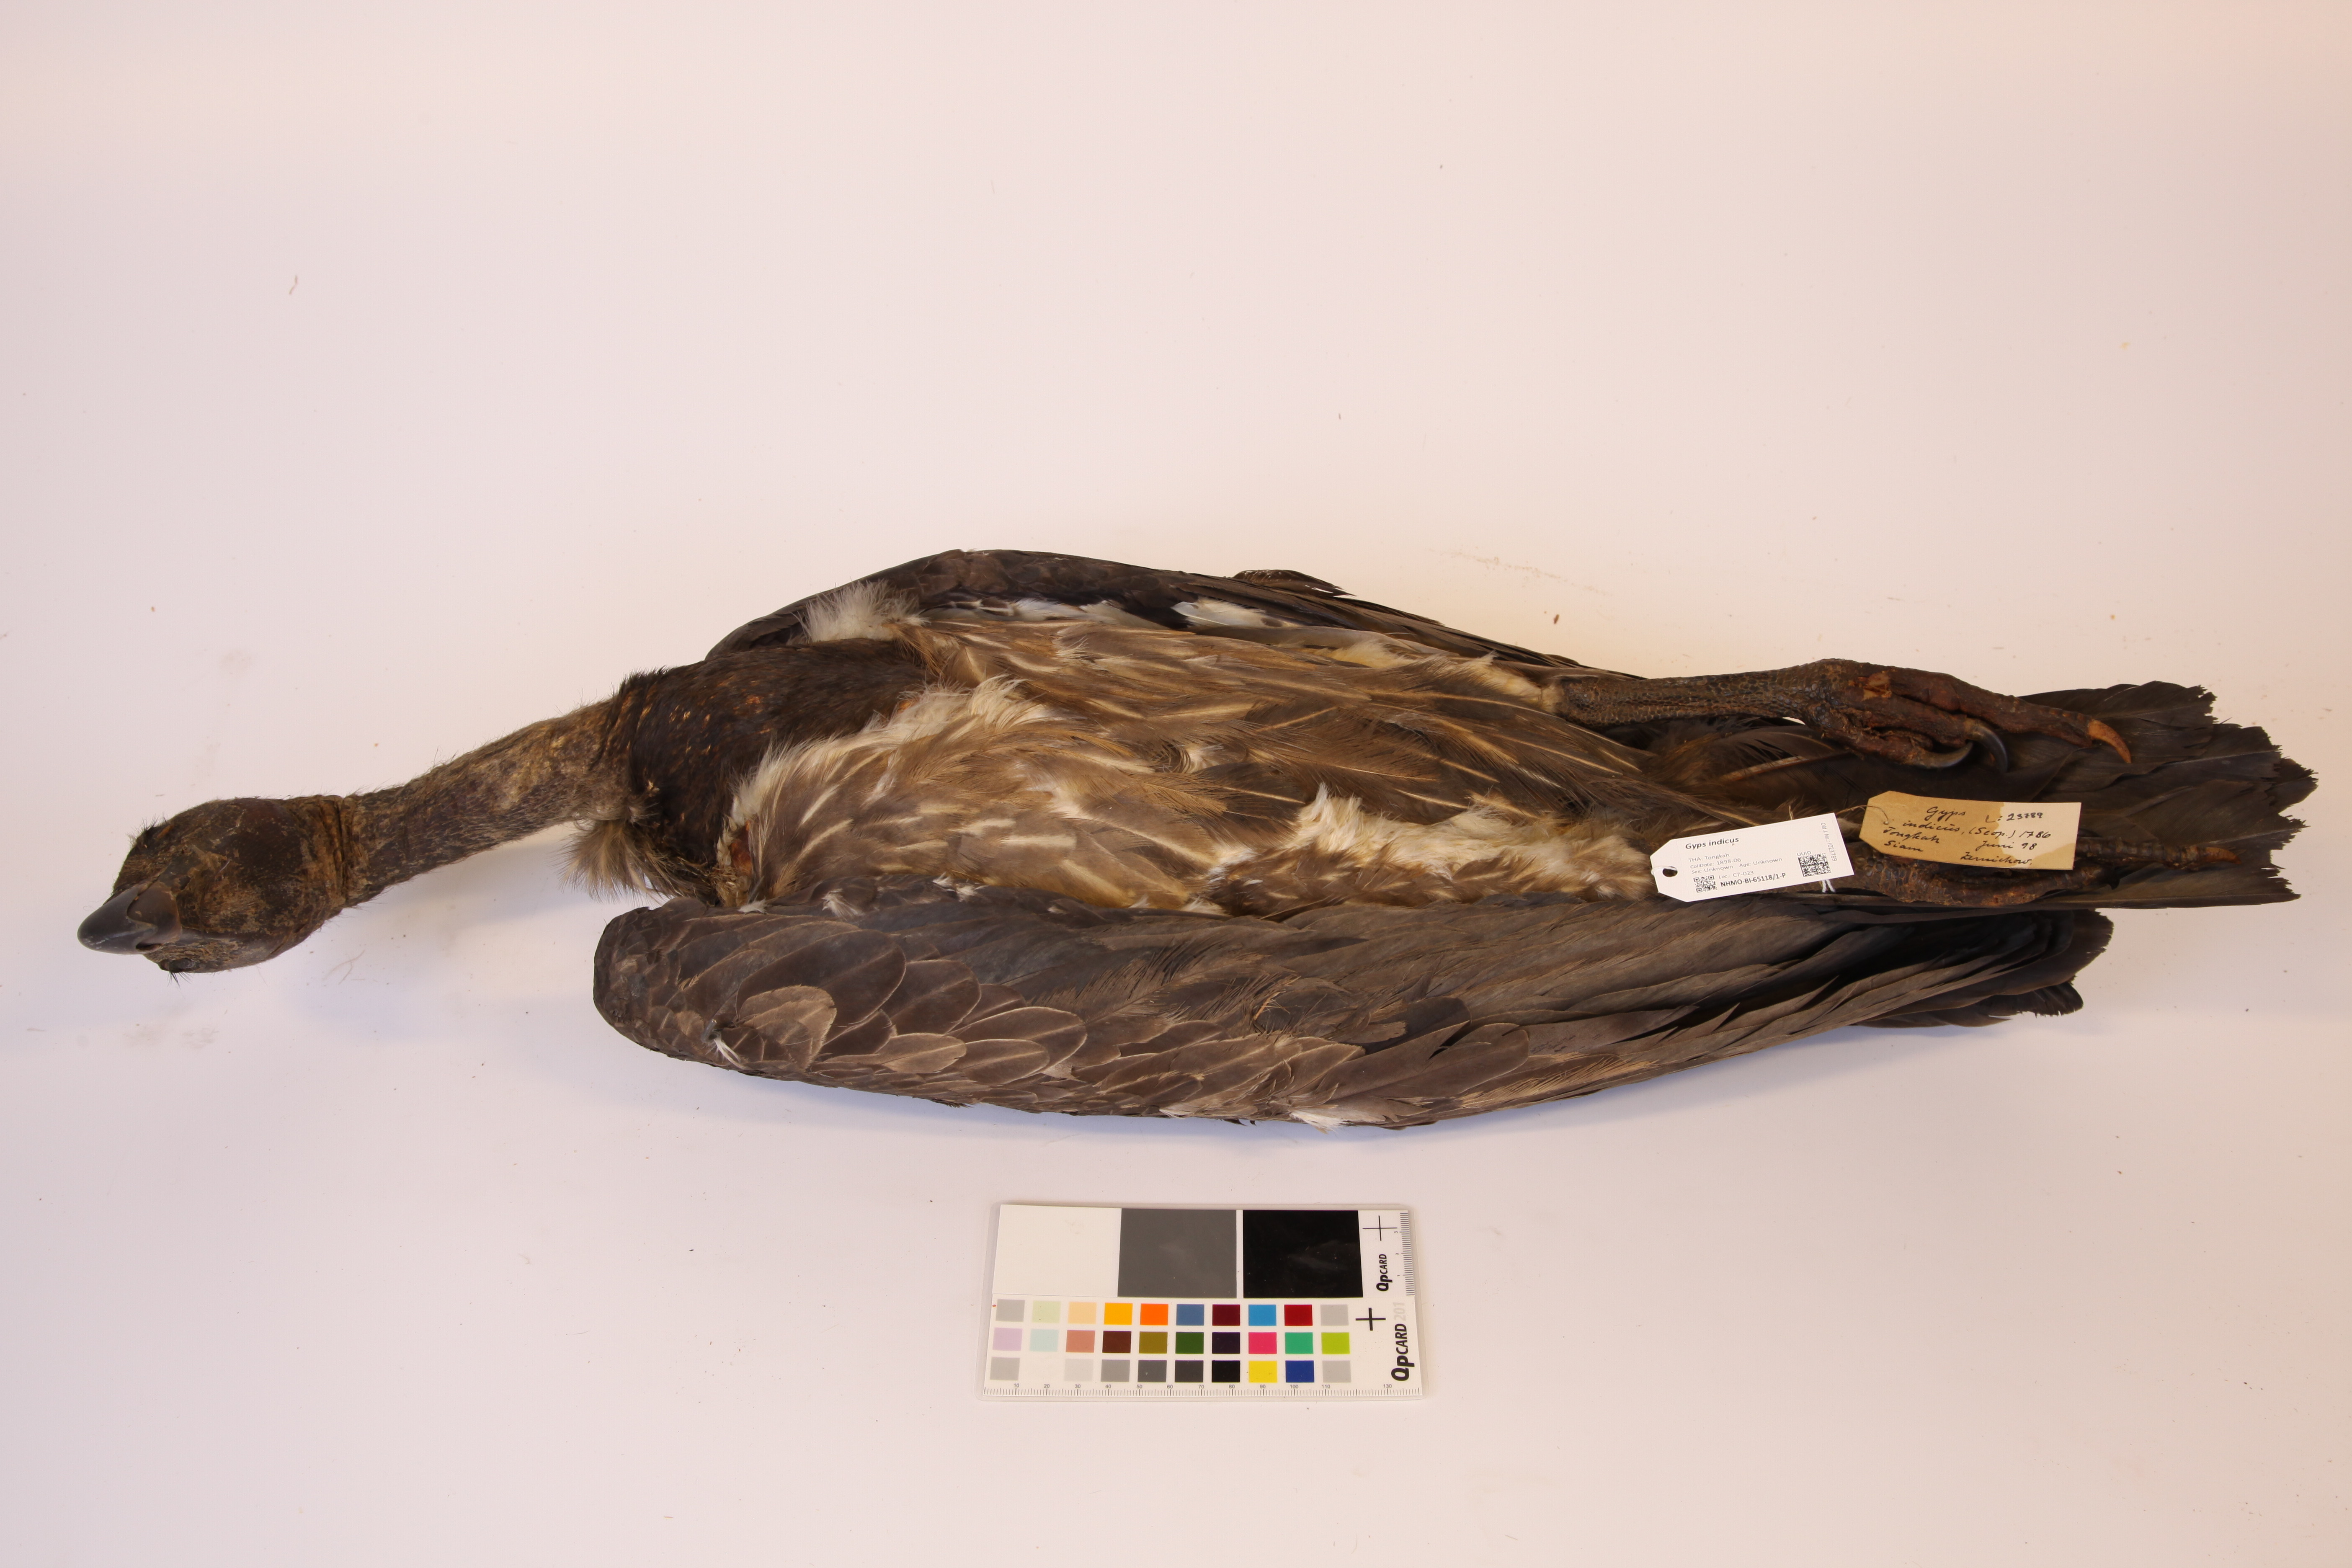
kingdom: Animalia
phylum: Chordata
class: Aves
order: Accipitriformes
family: Accipitridae
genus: Gyps
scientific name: Gyps indicus
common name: Indian vulture
